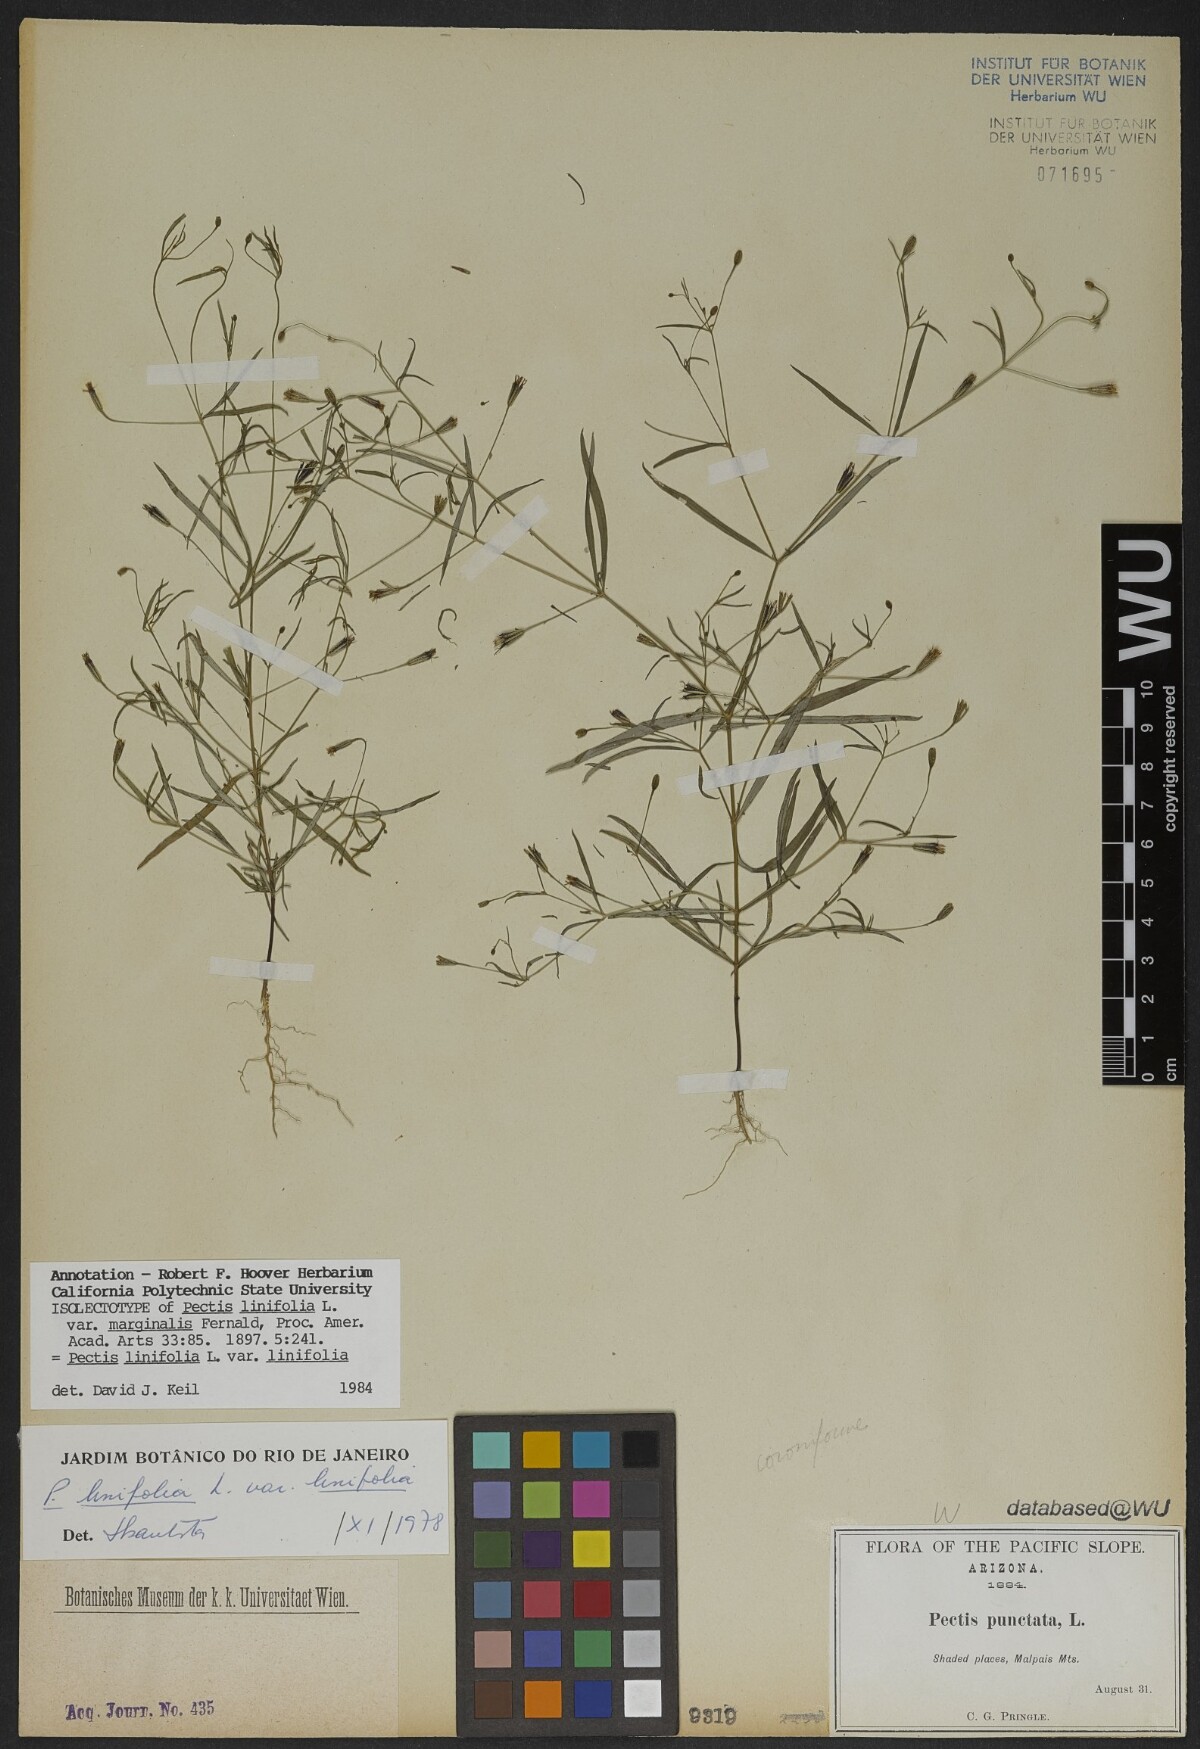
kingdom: Plantae
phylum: Tracheophyta
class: Magnoliopsida
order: Asterales
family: Asteraceae
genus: Pectis
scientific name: Pectis linifolia
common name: Romero macho
